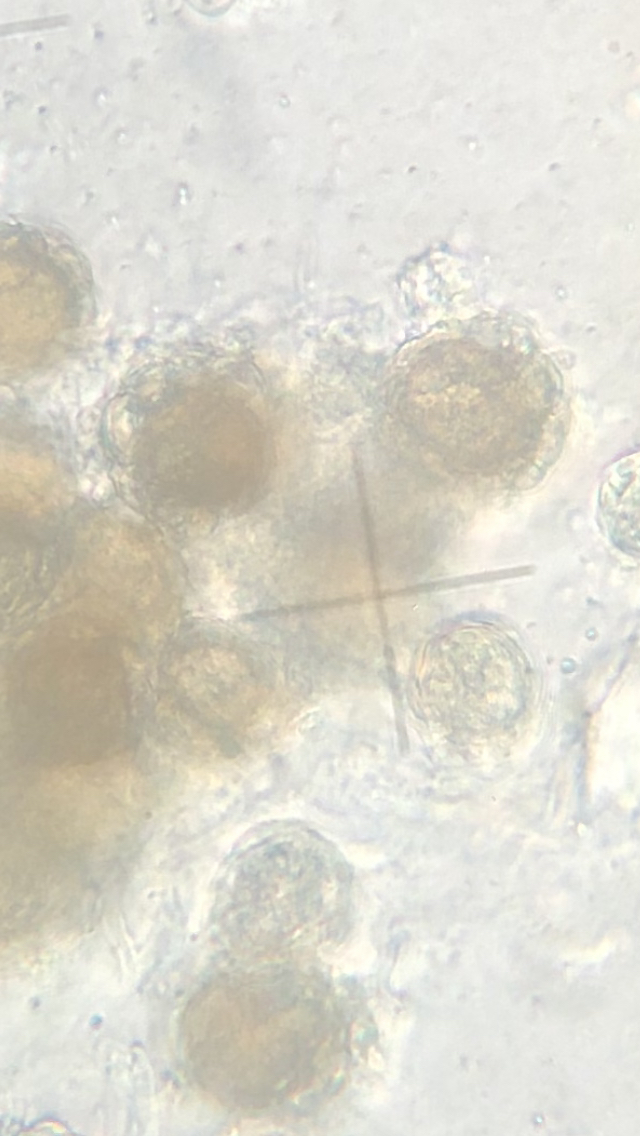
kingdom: Fungi
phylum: Basidiomycota
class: Ustilaginomycetes
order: Urocystidales
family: Urocystidaceae
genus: Urocystis
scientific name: Urocystis eranthidis
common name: erantis-brand
